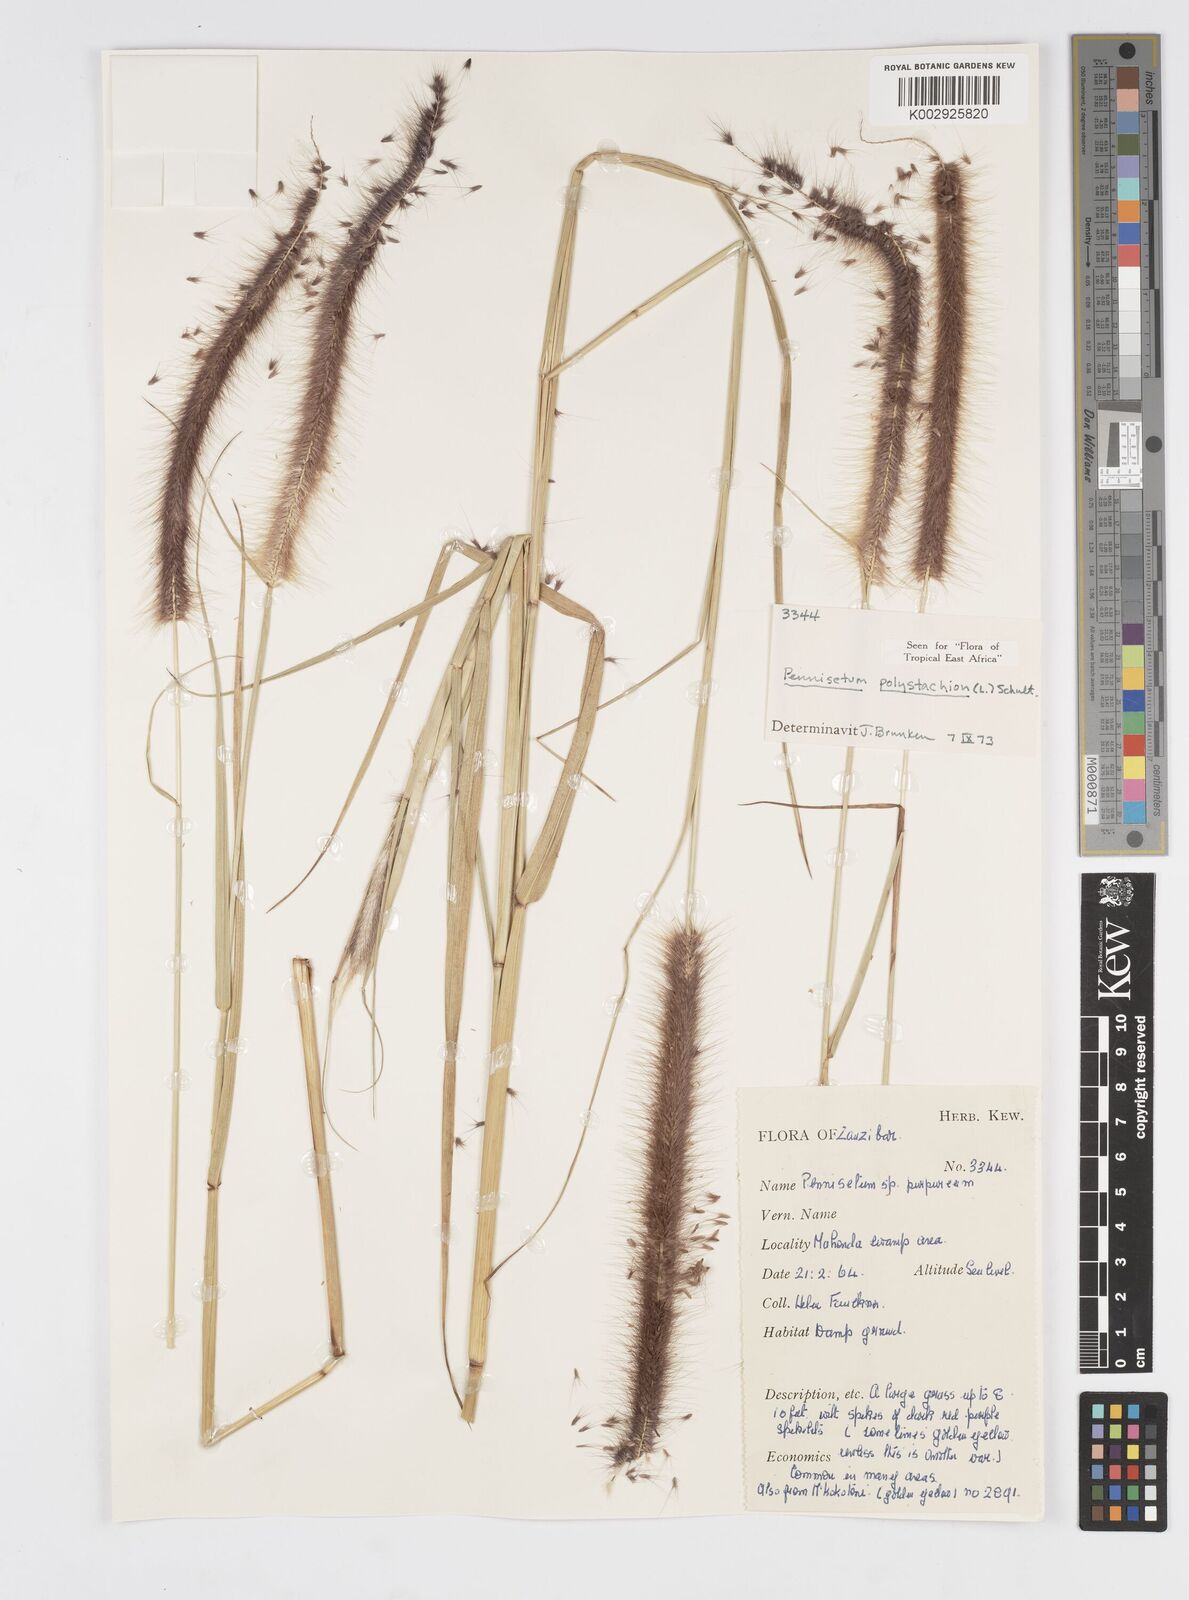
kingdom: Plantae
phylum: Tracheophyta
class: Liliopsida
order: Poales
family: Poaceae
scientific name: Poaceae
